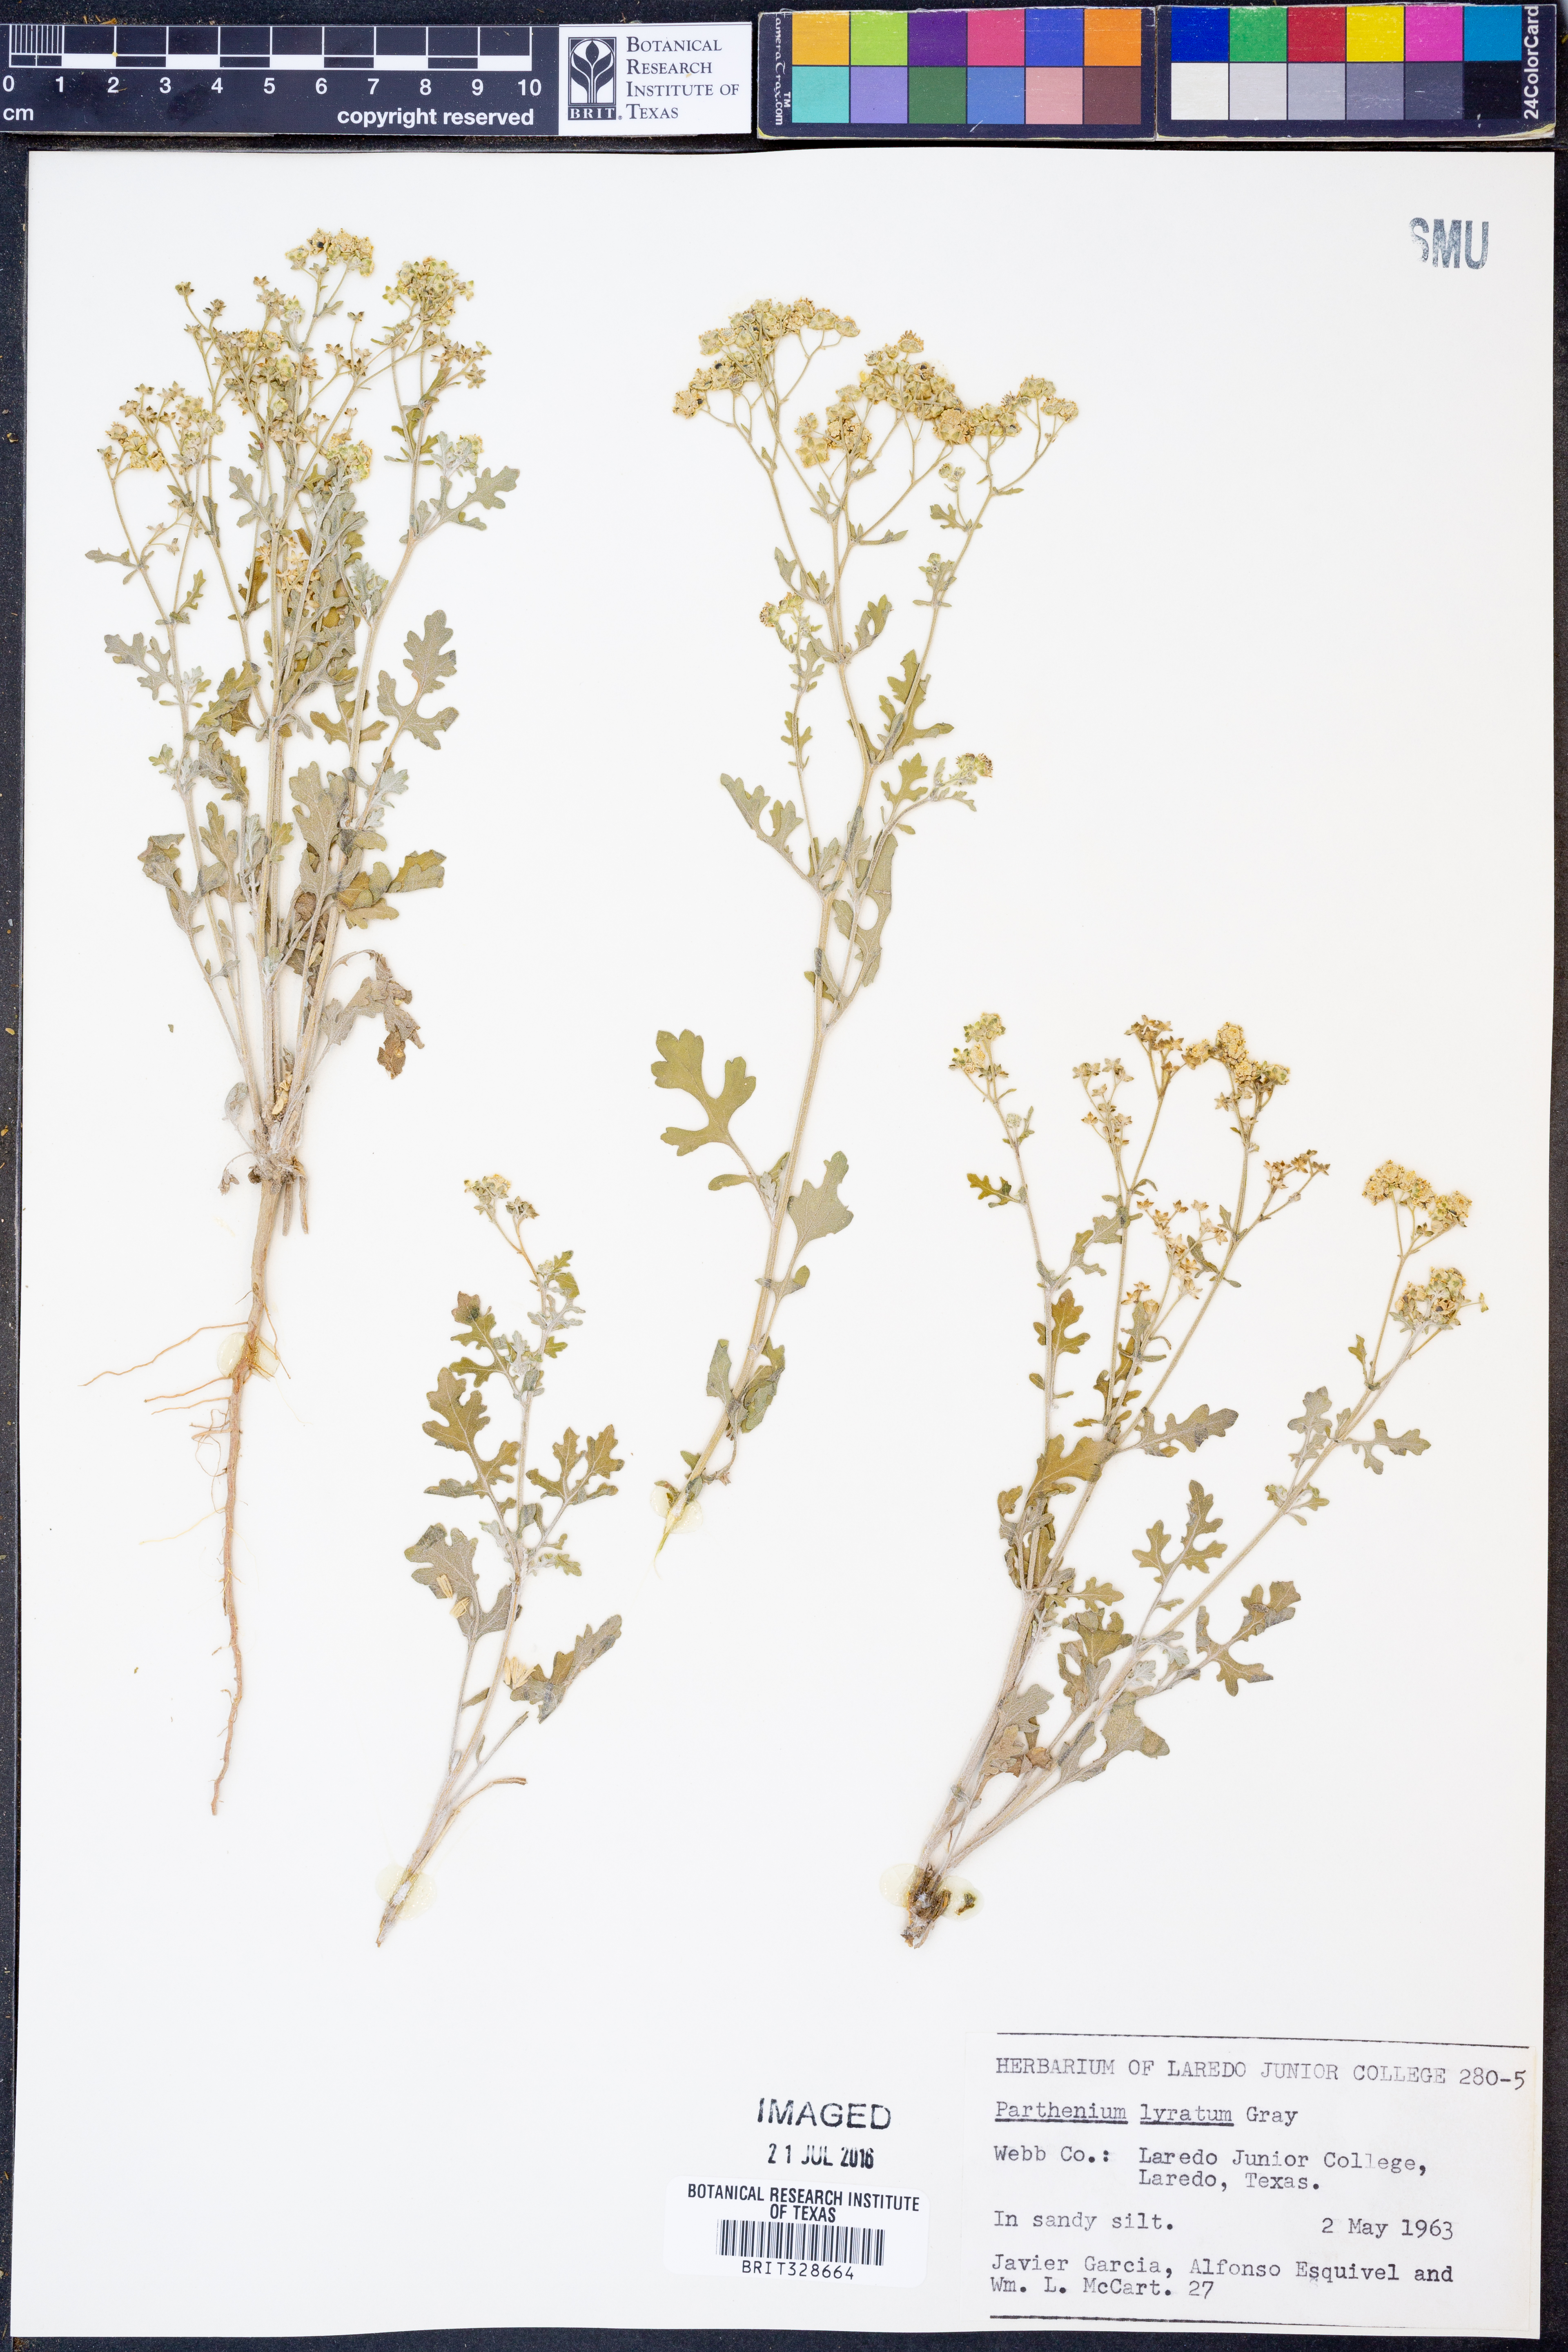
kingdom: Plantae
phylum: Tracheophyta
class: Magnoliopsida
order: Asterales
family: Asteraceae
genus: Parthenium
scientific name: Parthenium confertum
